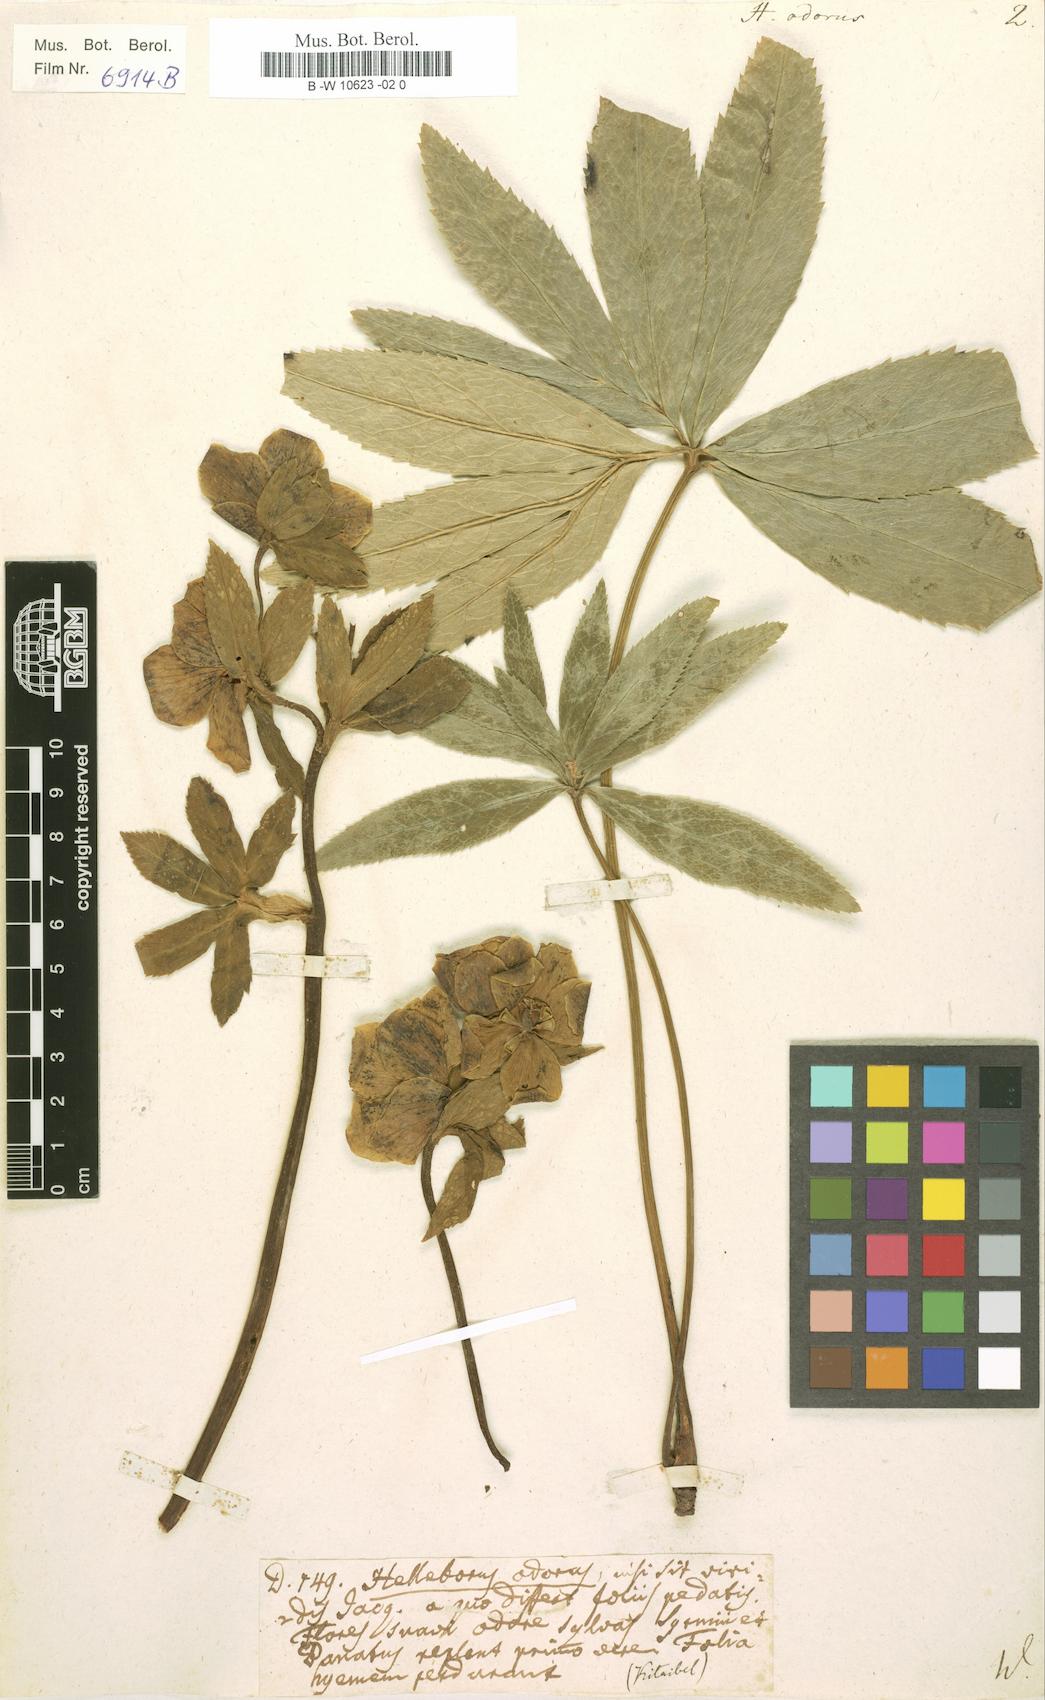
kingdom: Plantae
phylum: Tracheophyta
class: Magnoliopsida
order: Ranunculales
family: Ranunculaceae
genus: Helleborus
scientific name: Helleborus odorus
